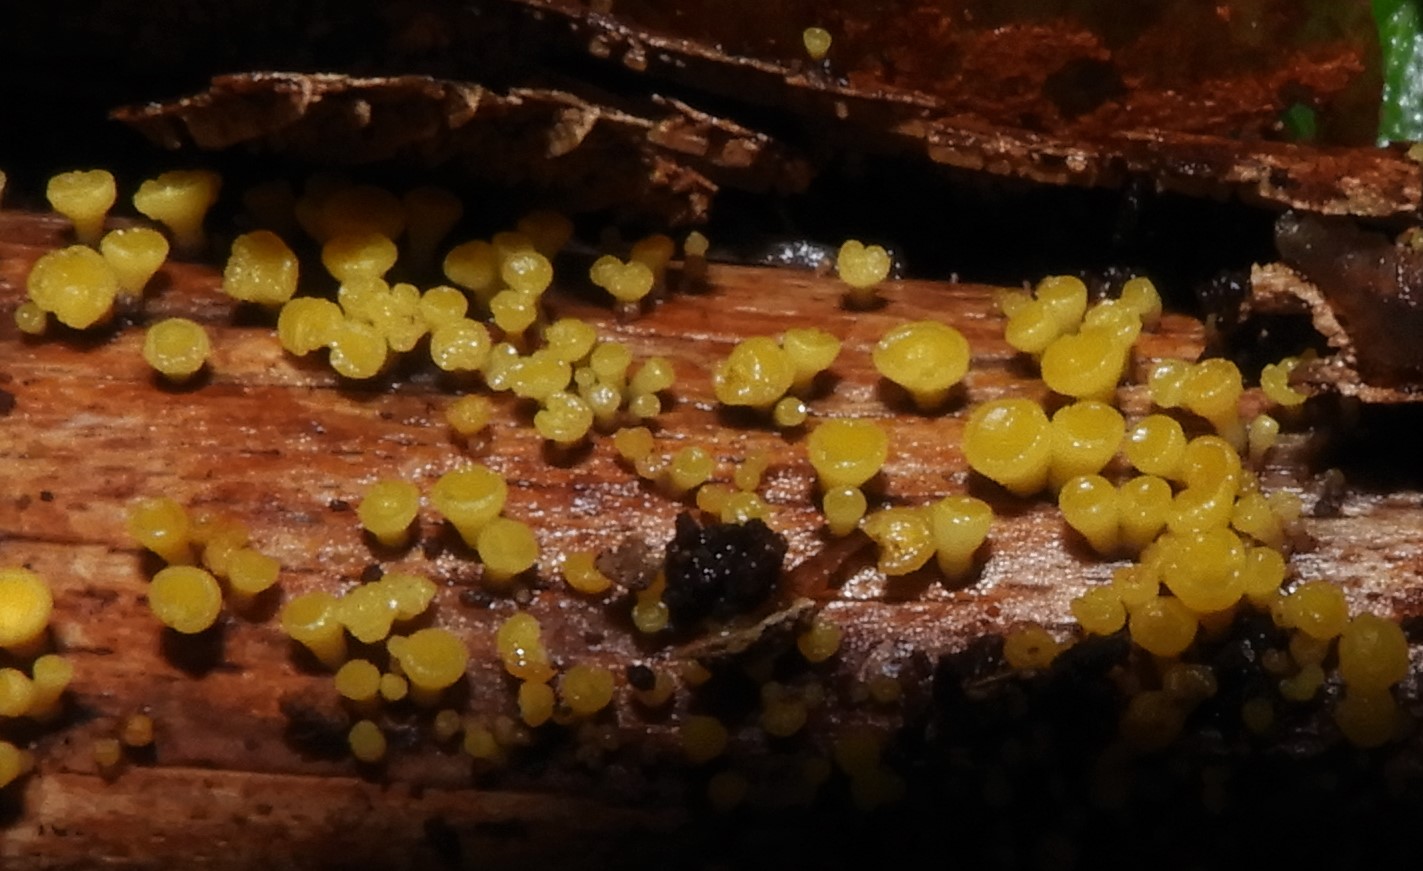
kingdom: Fungi
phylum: Ascomycota
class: Leotiomycetes
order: Helotiales
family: Pezizellaceae
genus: Calycina
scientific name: Calycina citrina
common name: almindelig gulskive
